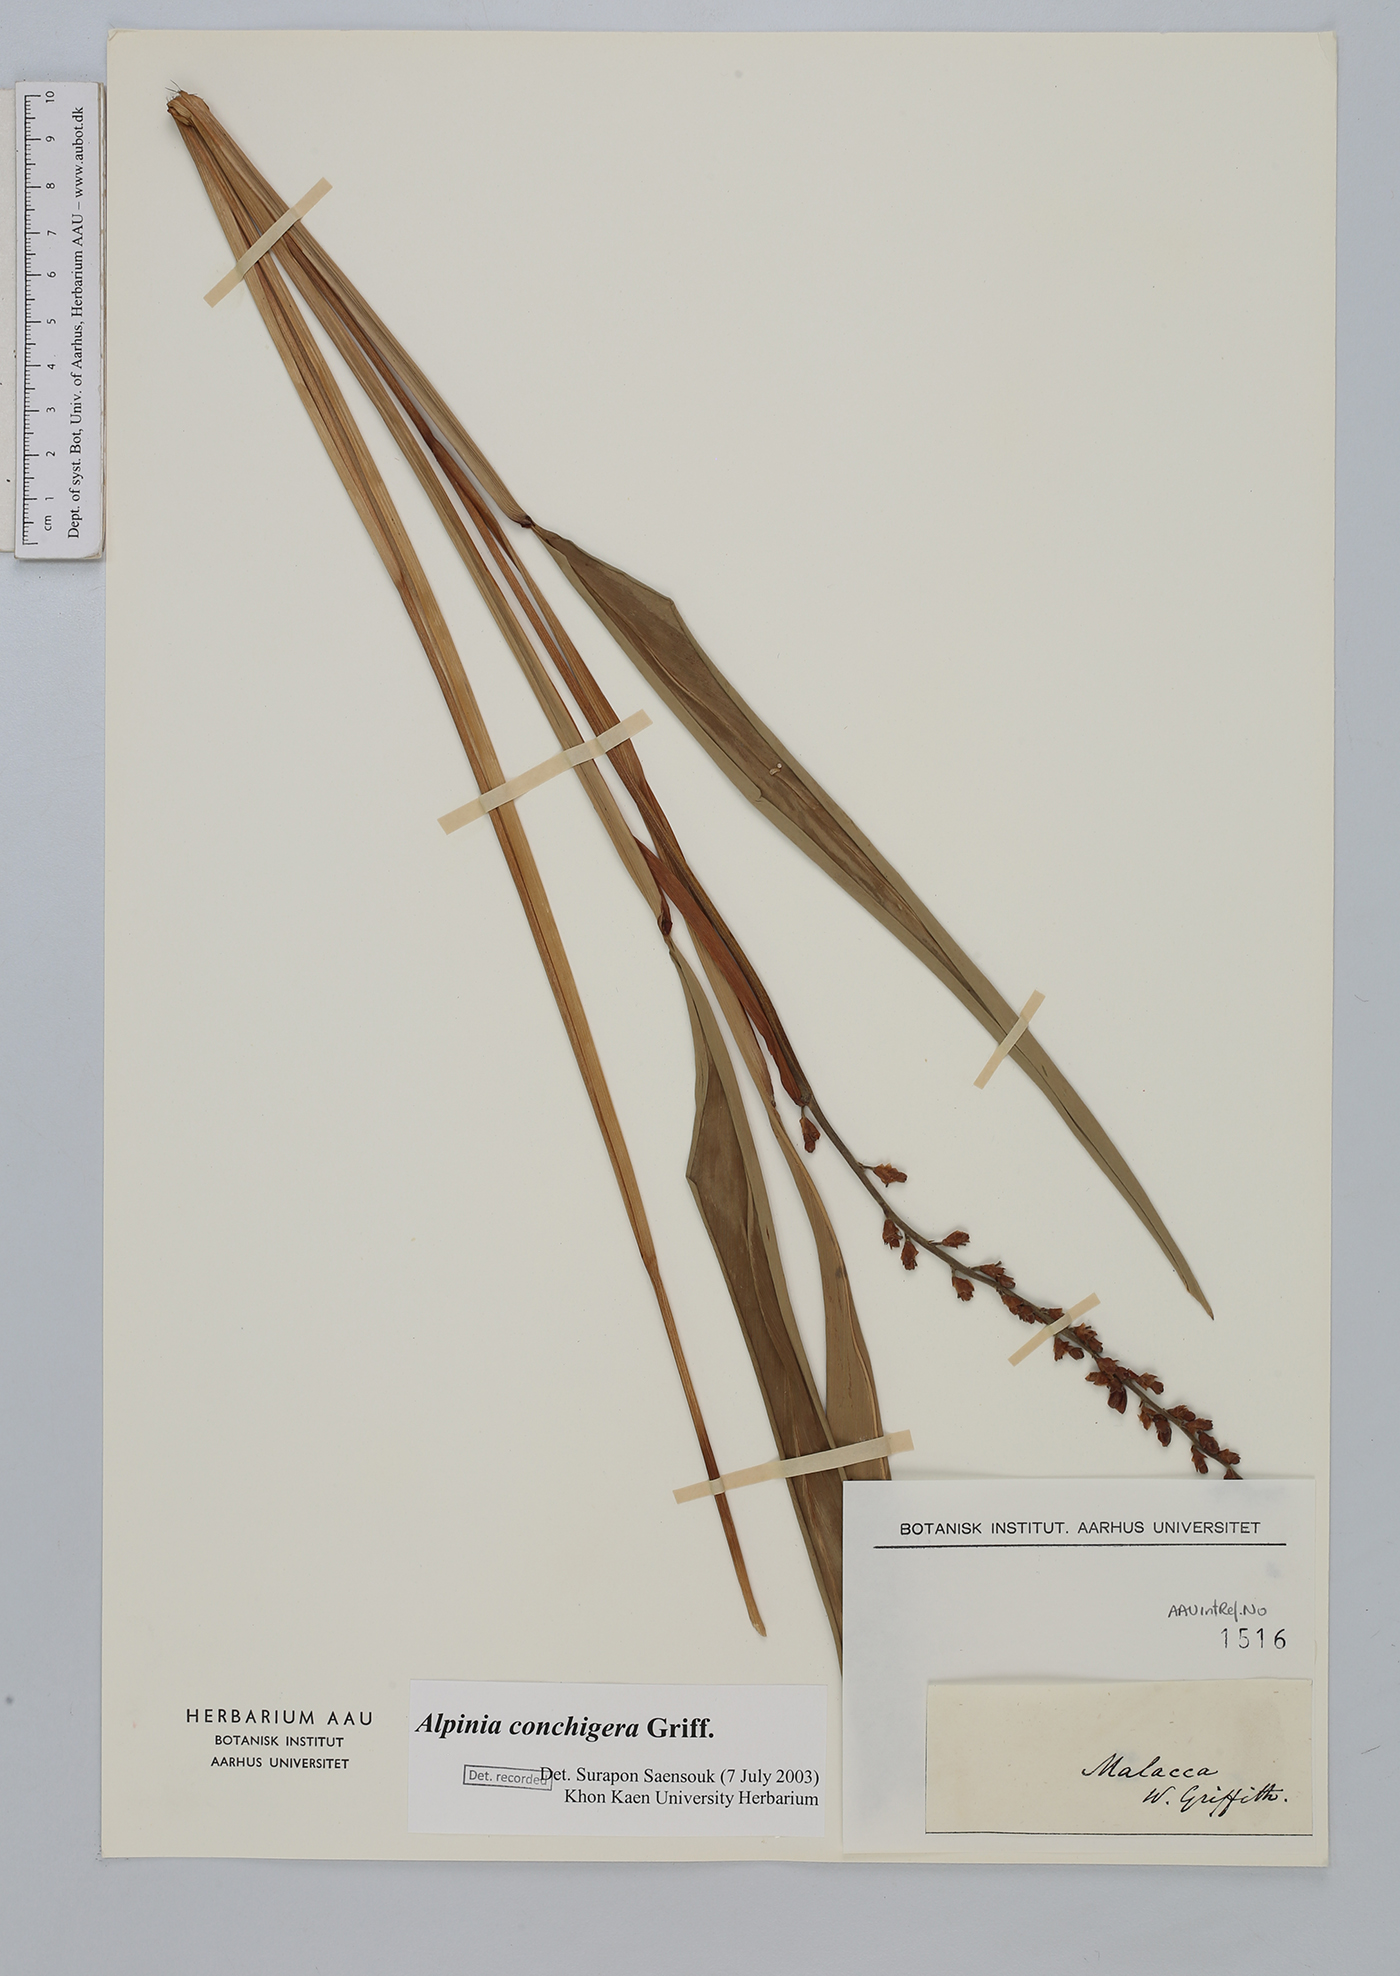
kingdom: Plantae
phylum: Tracheophyta
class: Liliopsida
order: Zingiberales
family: Zingiberaceae
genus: Alpinia
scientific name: Alpinia conchigera
